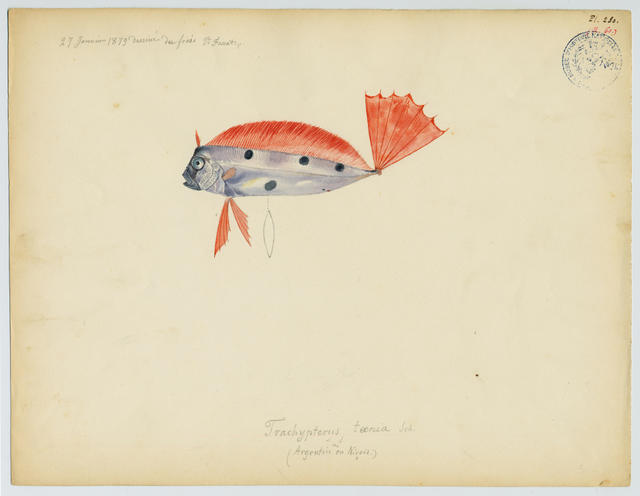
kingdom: Animalia
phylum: Chordata
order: Lampriformes
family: Trachipteridae
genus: Trachipterus
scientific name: Trachipterus trachypterus
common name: Dealfish
